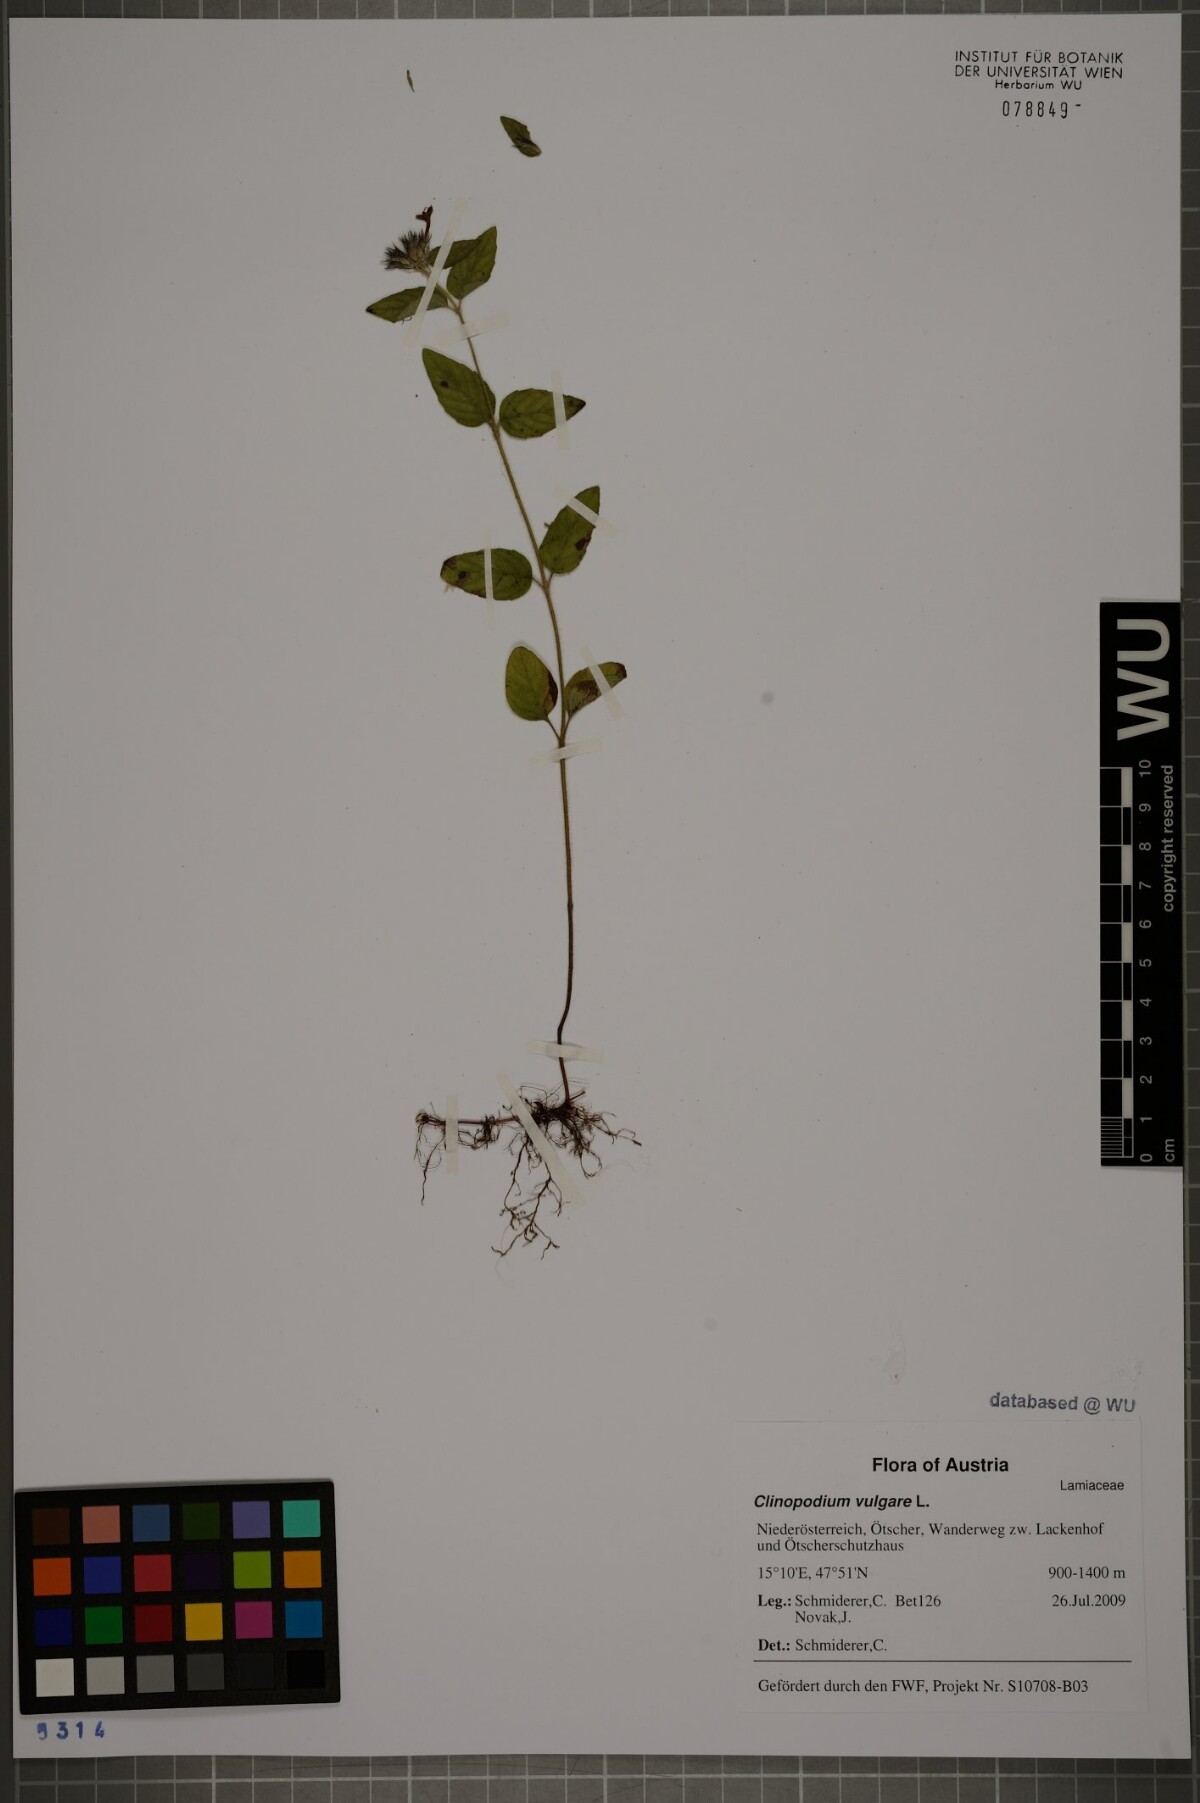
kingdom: Plantae
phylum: Tracheophyta
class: Magnoliopsida
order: Lamiales
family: Lamiaceae
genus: Clinopodium
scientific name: Clinopodium vulgare
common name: Wild basil
